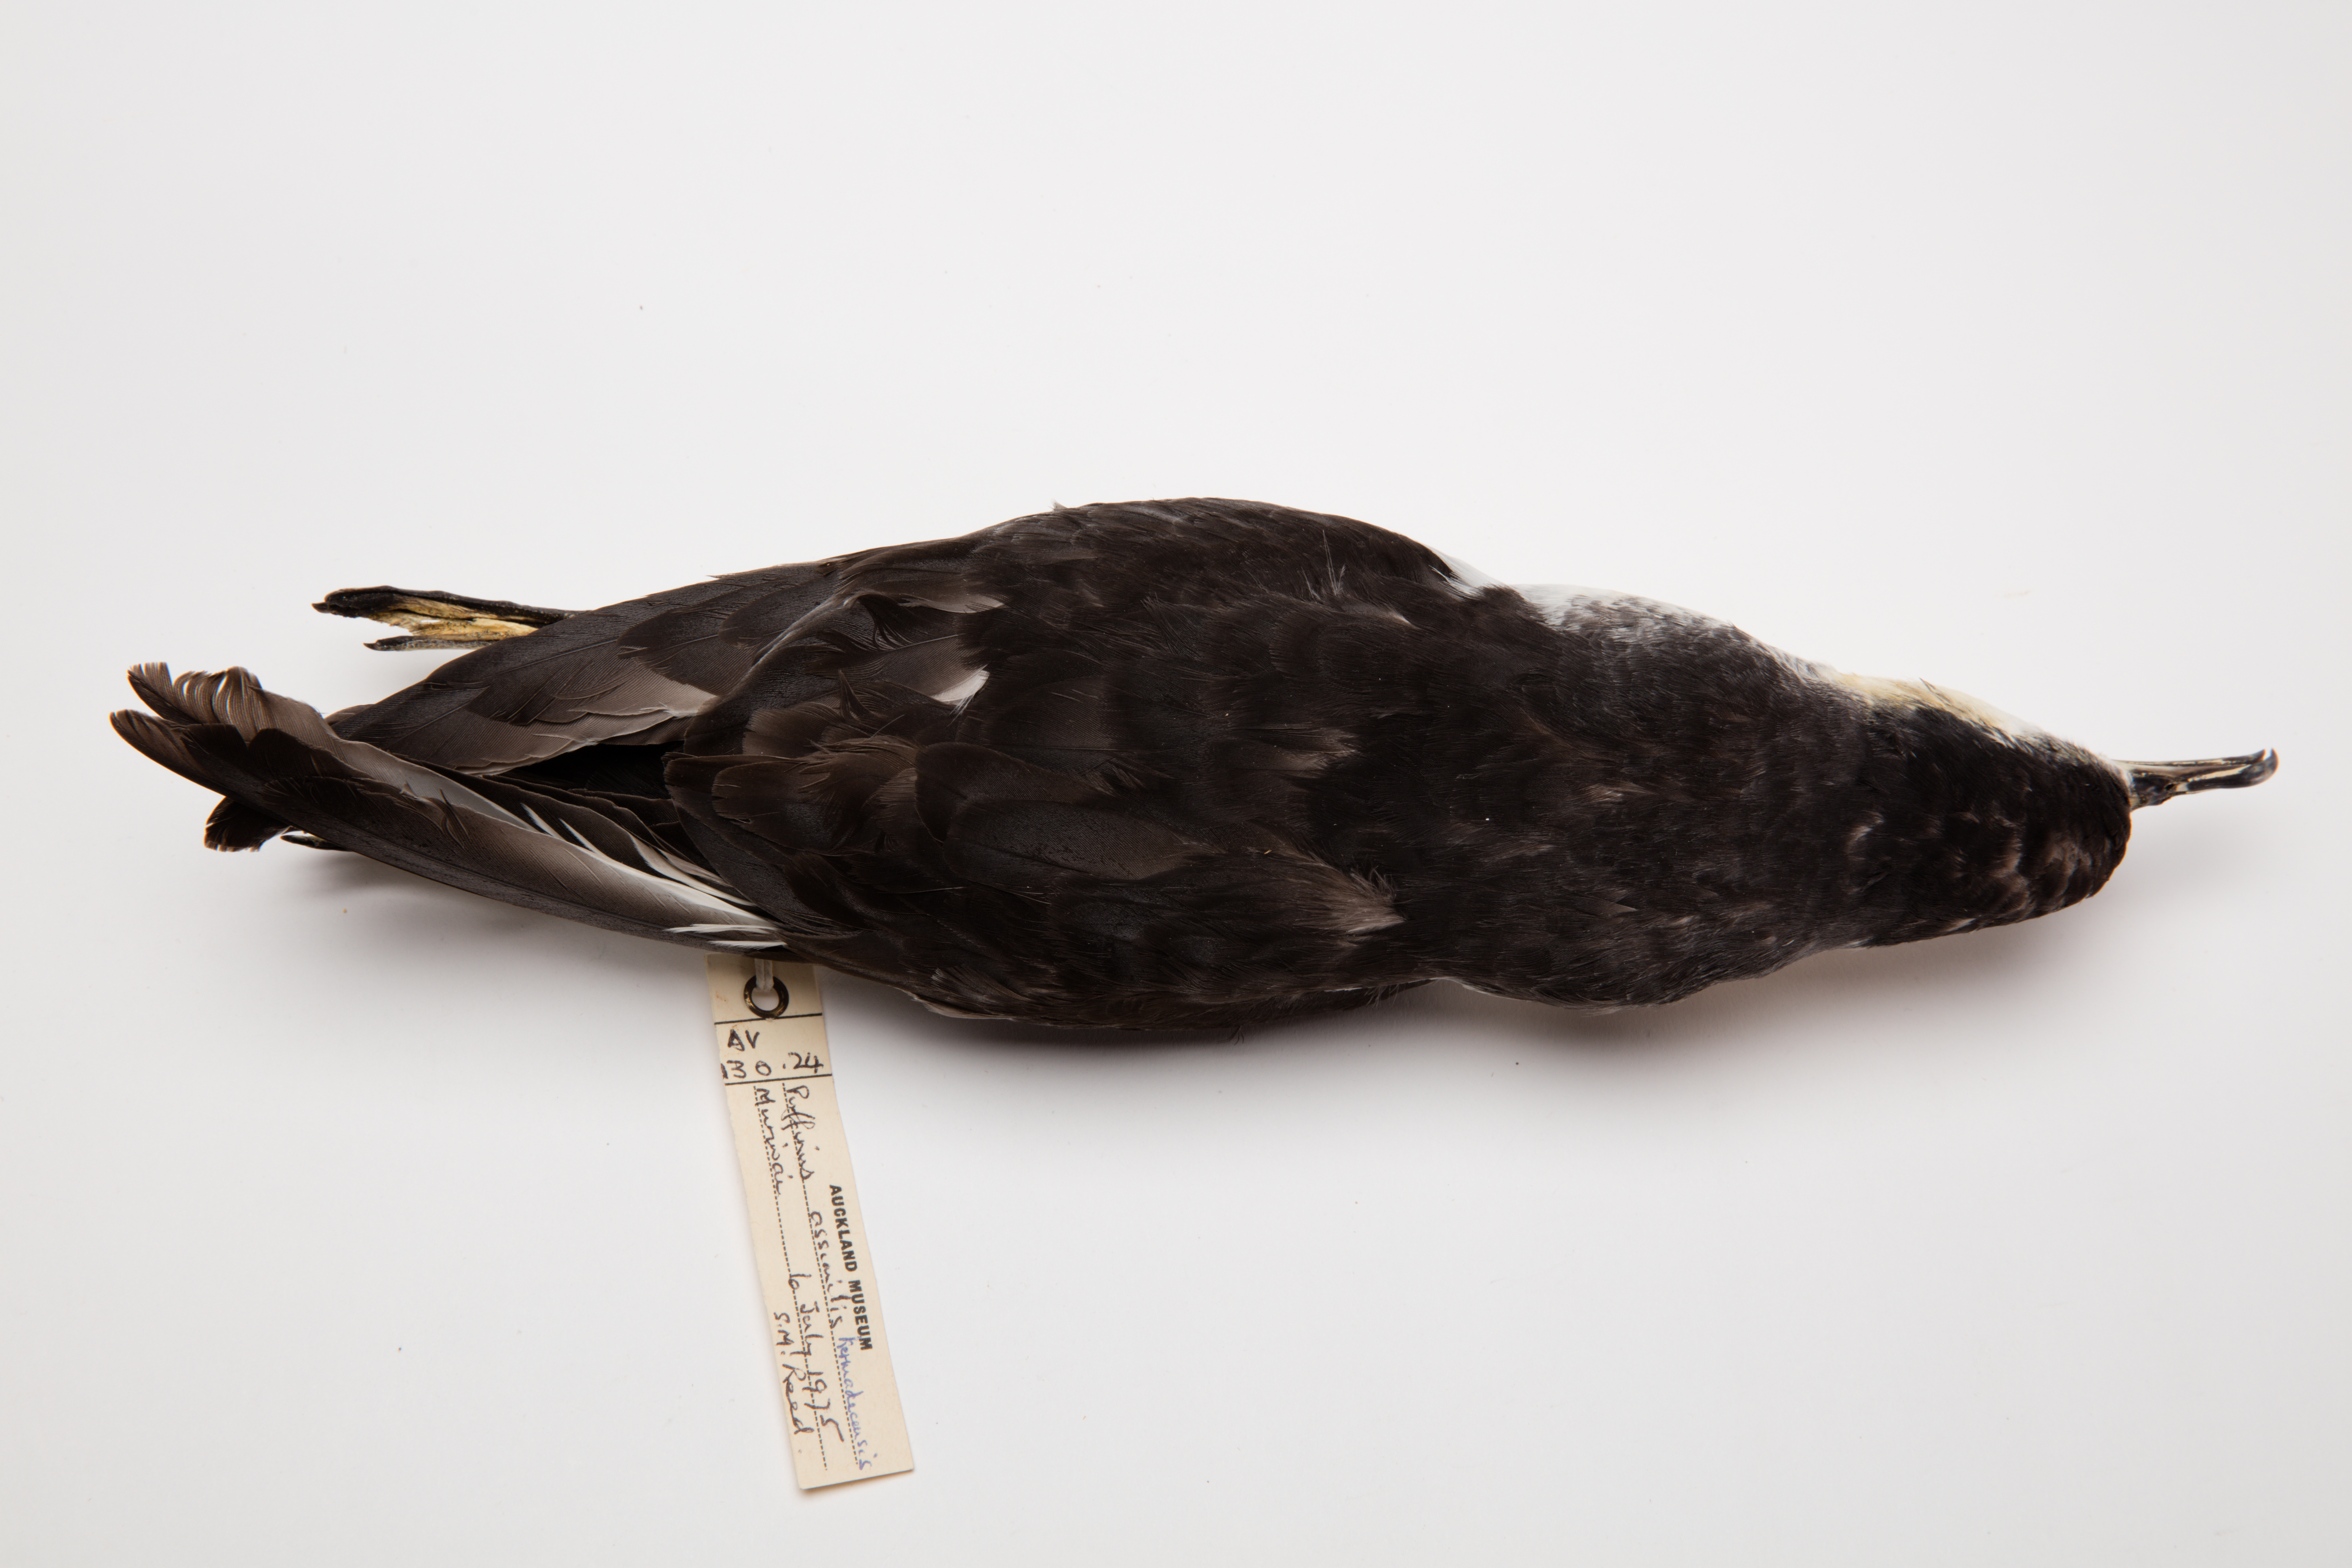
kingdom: Animalia
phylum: Chordata
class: Aves
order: Procellariiformes
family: Procellariidae
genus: Puffinus
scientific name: Puffinus assimilis
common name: Little shearwater
